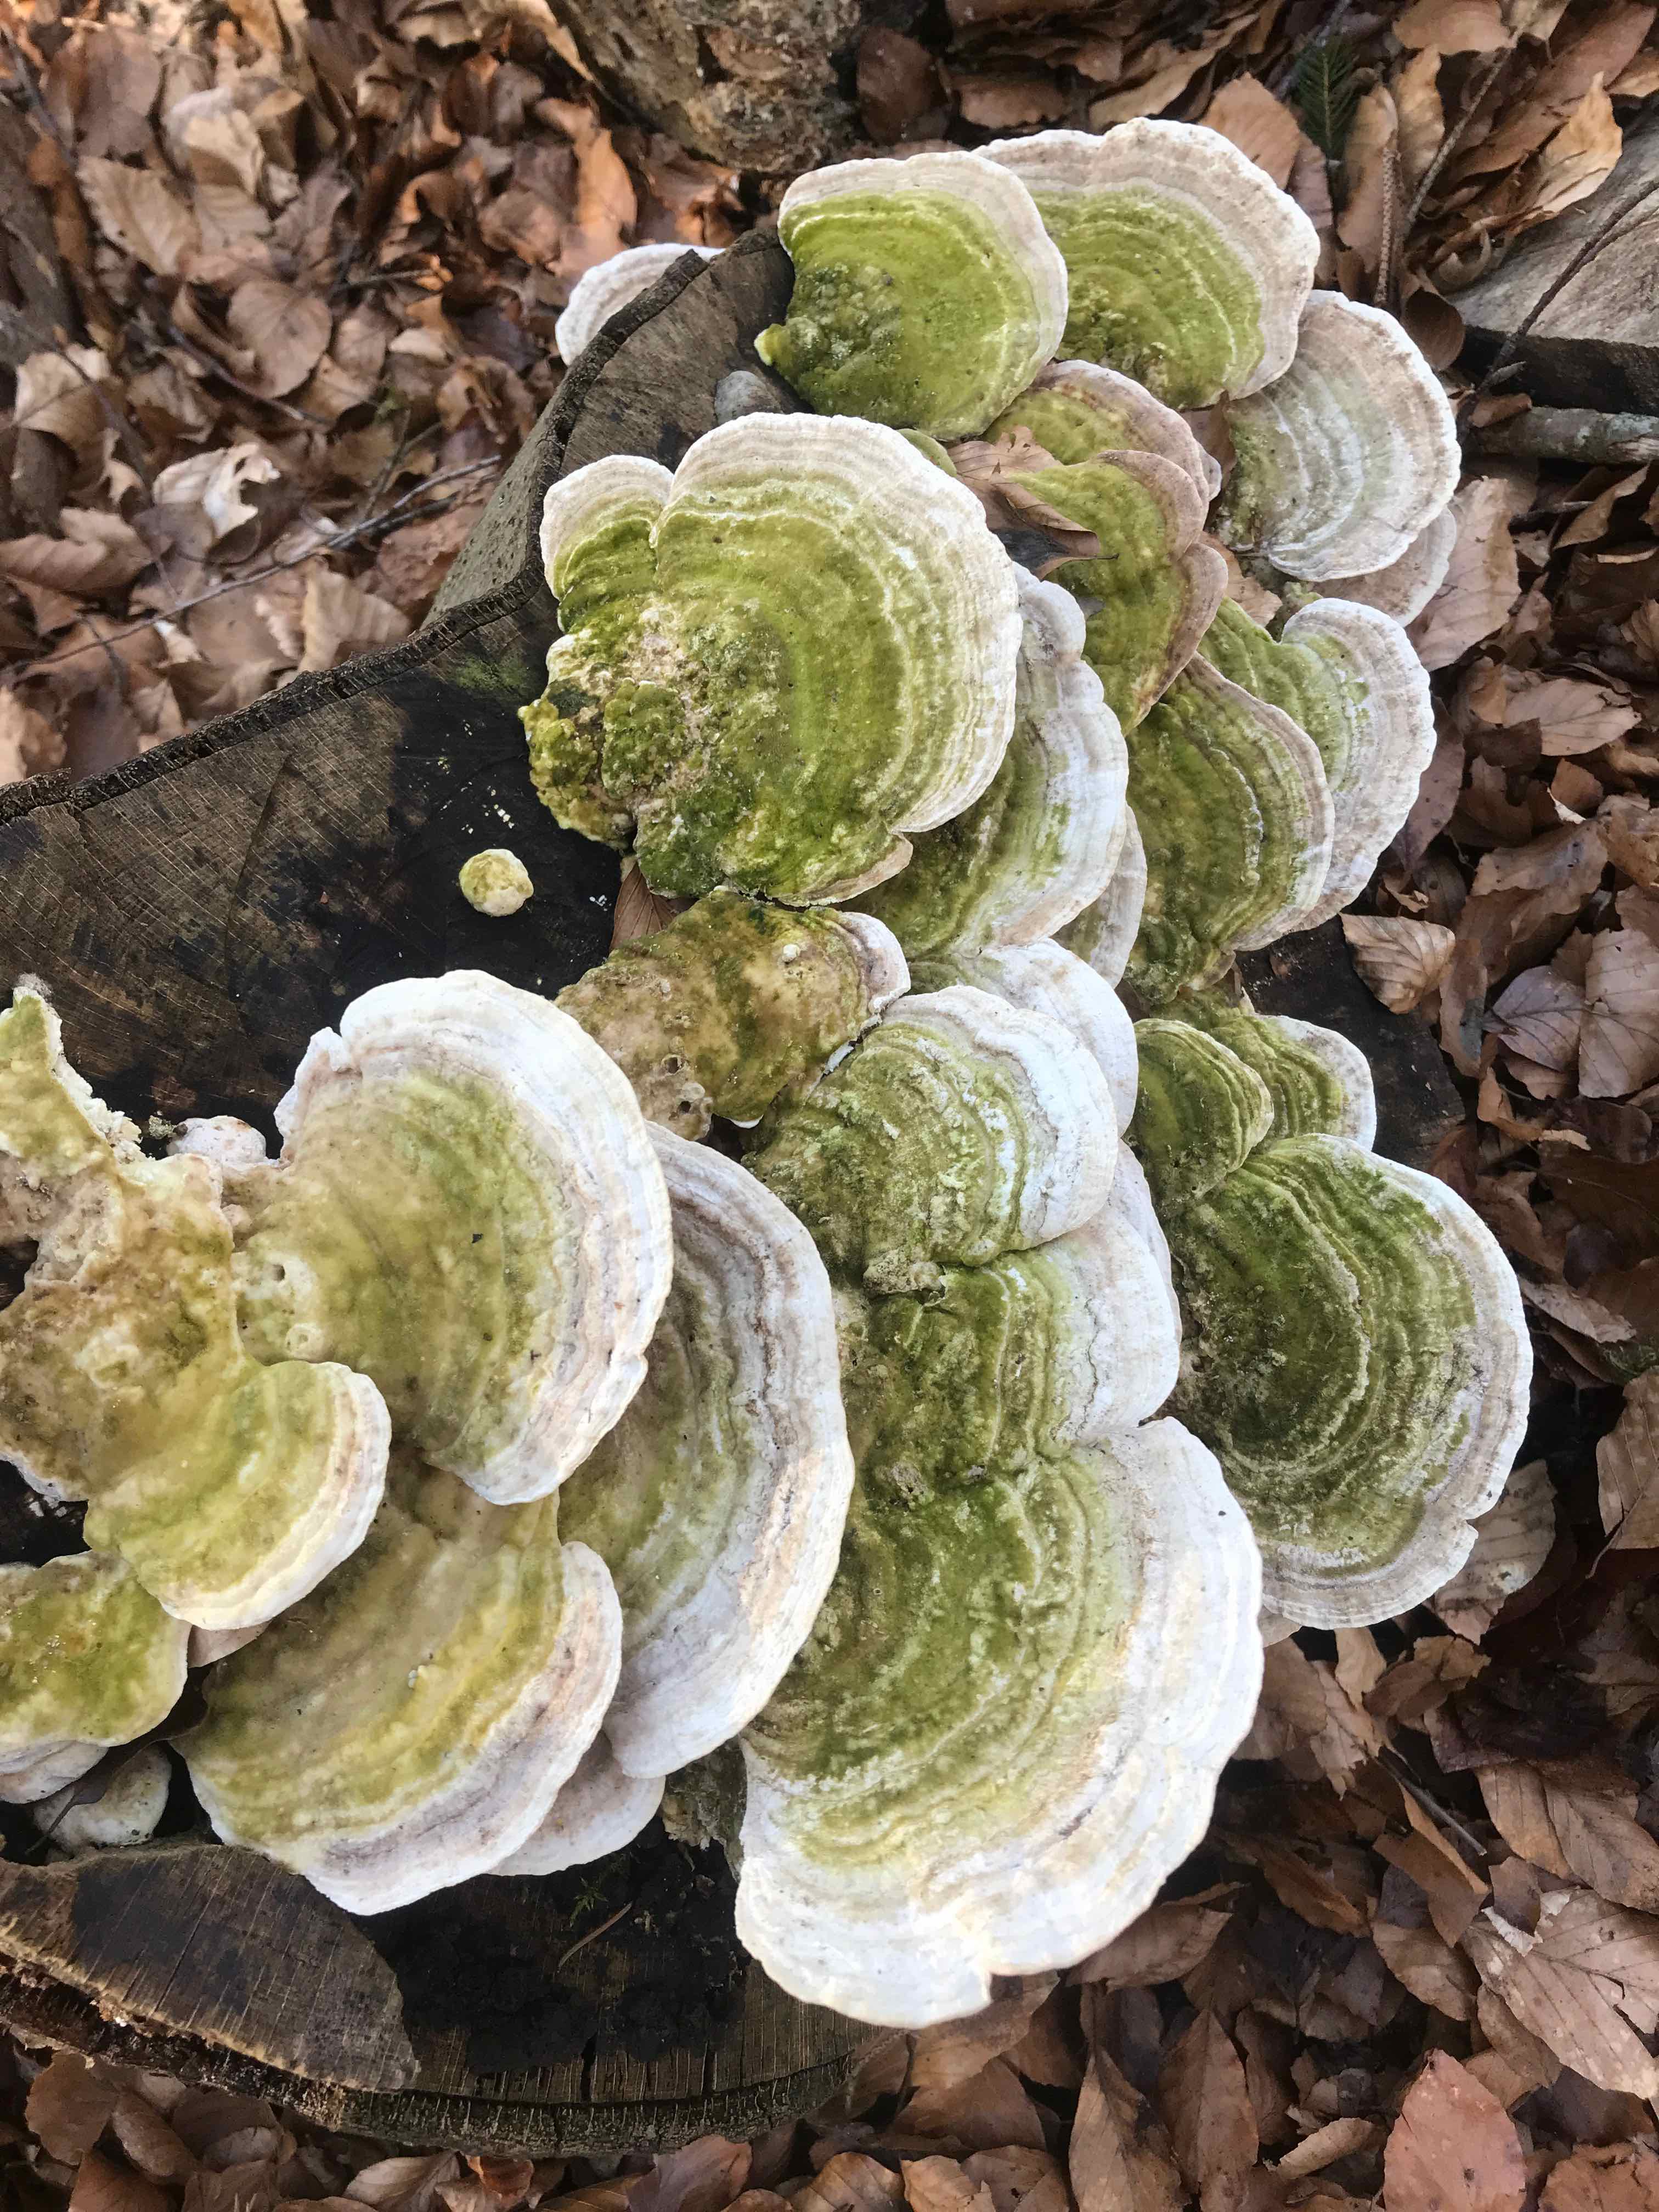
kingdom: Fungi
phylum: Basidiomycota
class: Agaricomycetes
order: Polyporales
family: Polyporaceae
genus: Trametes
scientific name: Trametes hirsuta
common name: håret læderporesvamp
